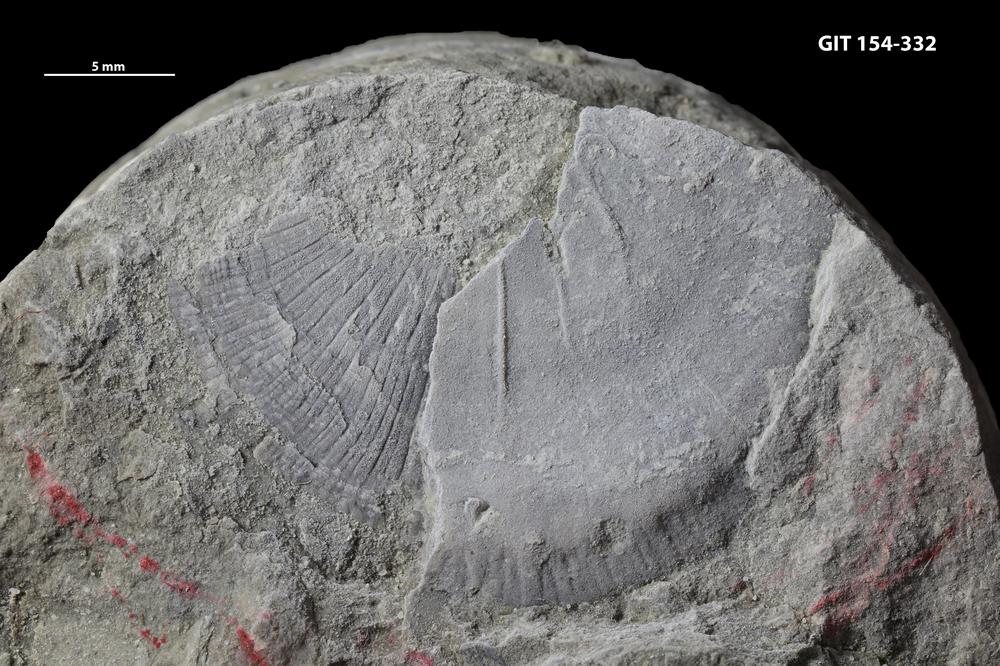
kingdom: Animalia
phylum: Brachiopoda
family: Strophomenidae
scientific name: Strophomenidae
